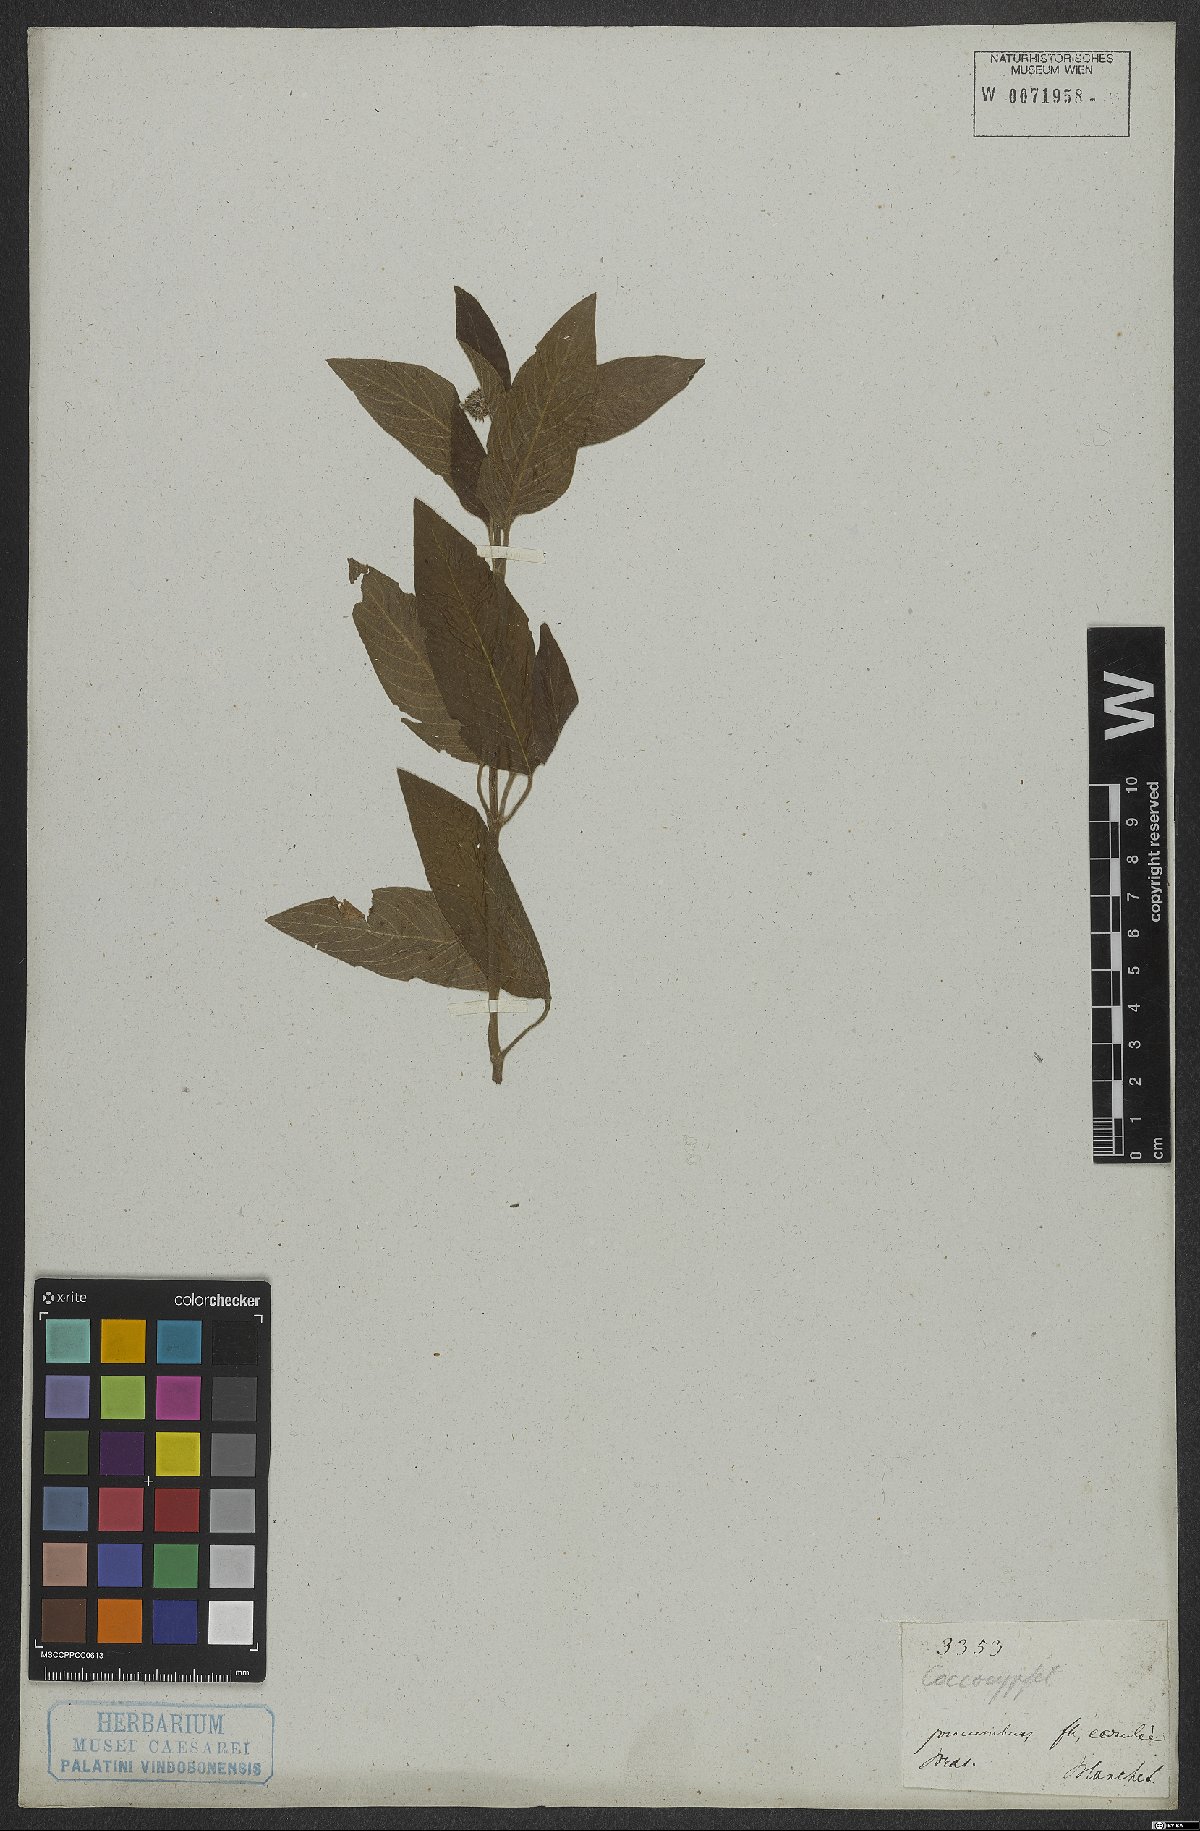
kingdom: Plantae
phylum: Tracheophyta
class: Magnoliopsida
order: Gentianales
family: Rubiaceae
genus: Coccocypselum
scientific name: Coccocypselum
